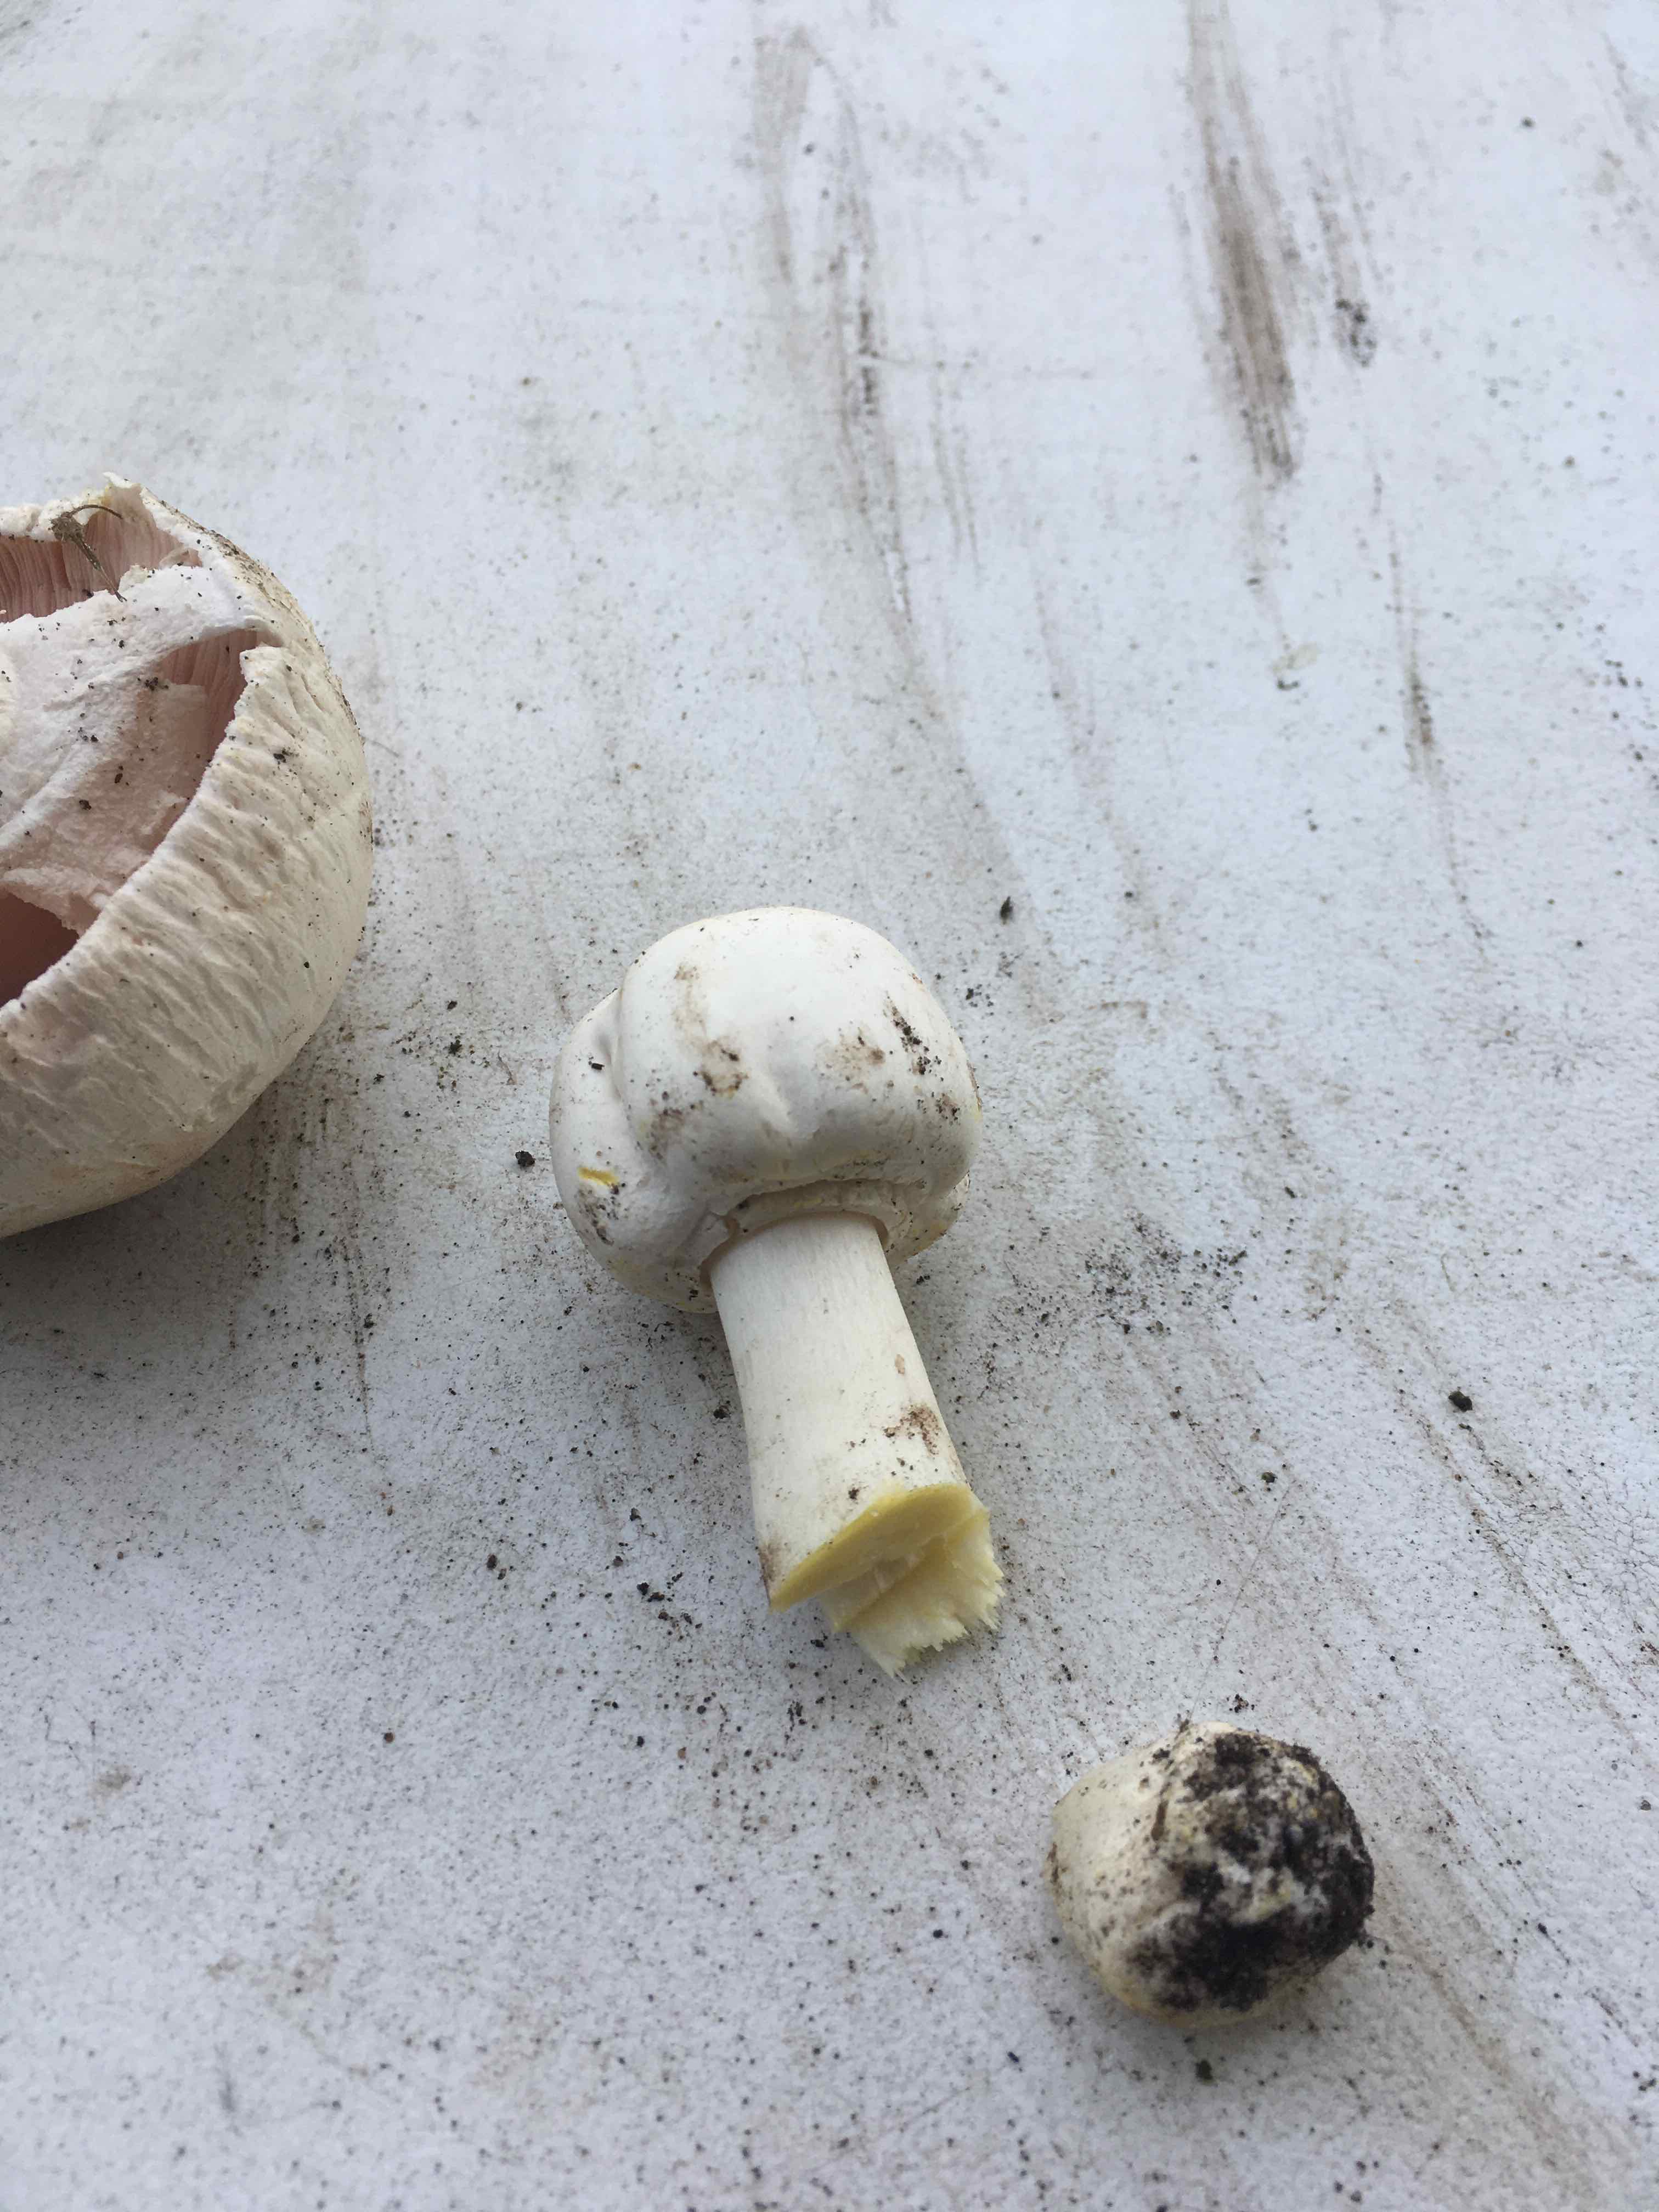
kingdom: Fungi
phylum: Basidiomycota
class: Agaricomycetes
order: Agaricales
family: Agaricaceae
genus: Agaricus
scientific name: Agaricus xanthodermus
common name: karbol-champignon
